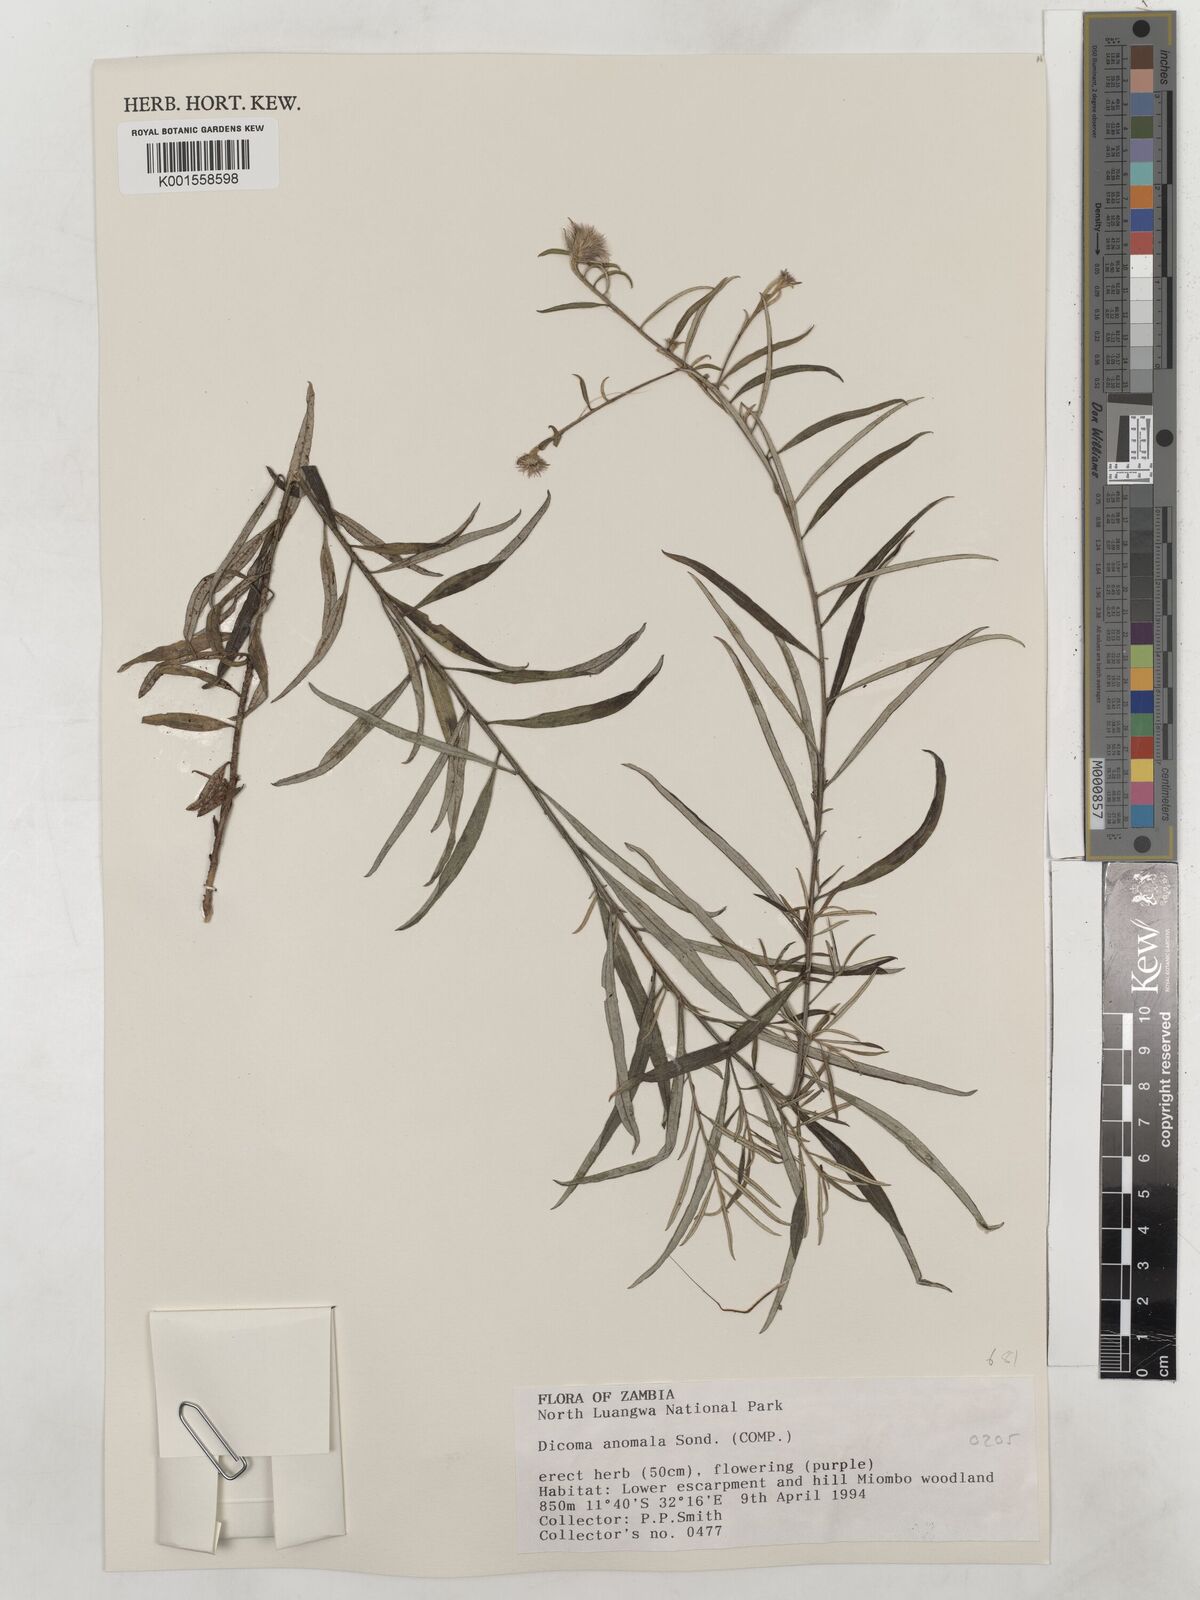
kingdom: Plantae
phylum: Tracheophyta
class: Magnoliopsida
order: Asterales
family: Asteraceae
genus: Dicoma
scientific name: Dicoma anomala
